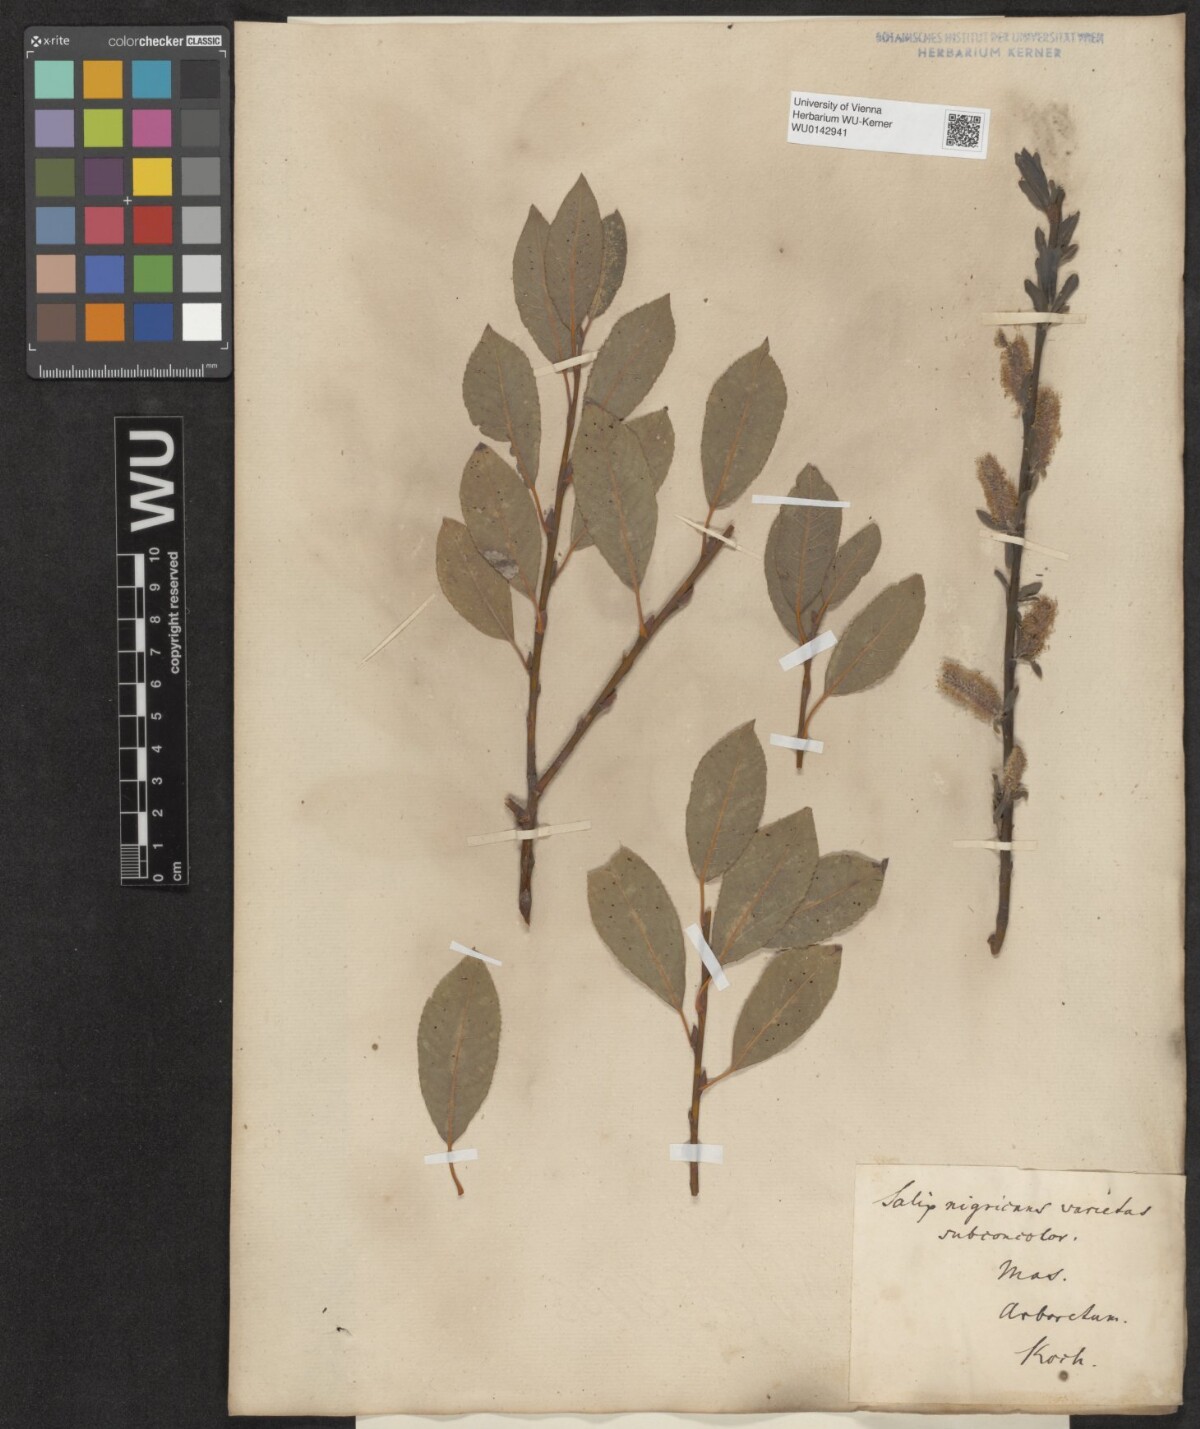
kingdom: Plantae
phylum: Tracheophyta
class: Magnoliopsida
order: Malpighiales
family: Salicaceae
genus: Salix
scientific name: Salix myrsinifolia
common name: Dark-leaved willow
